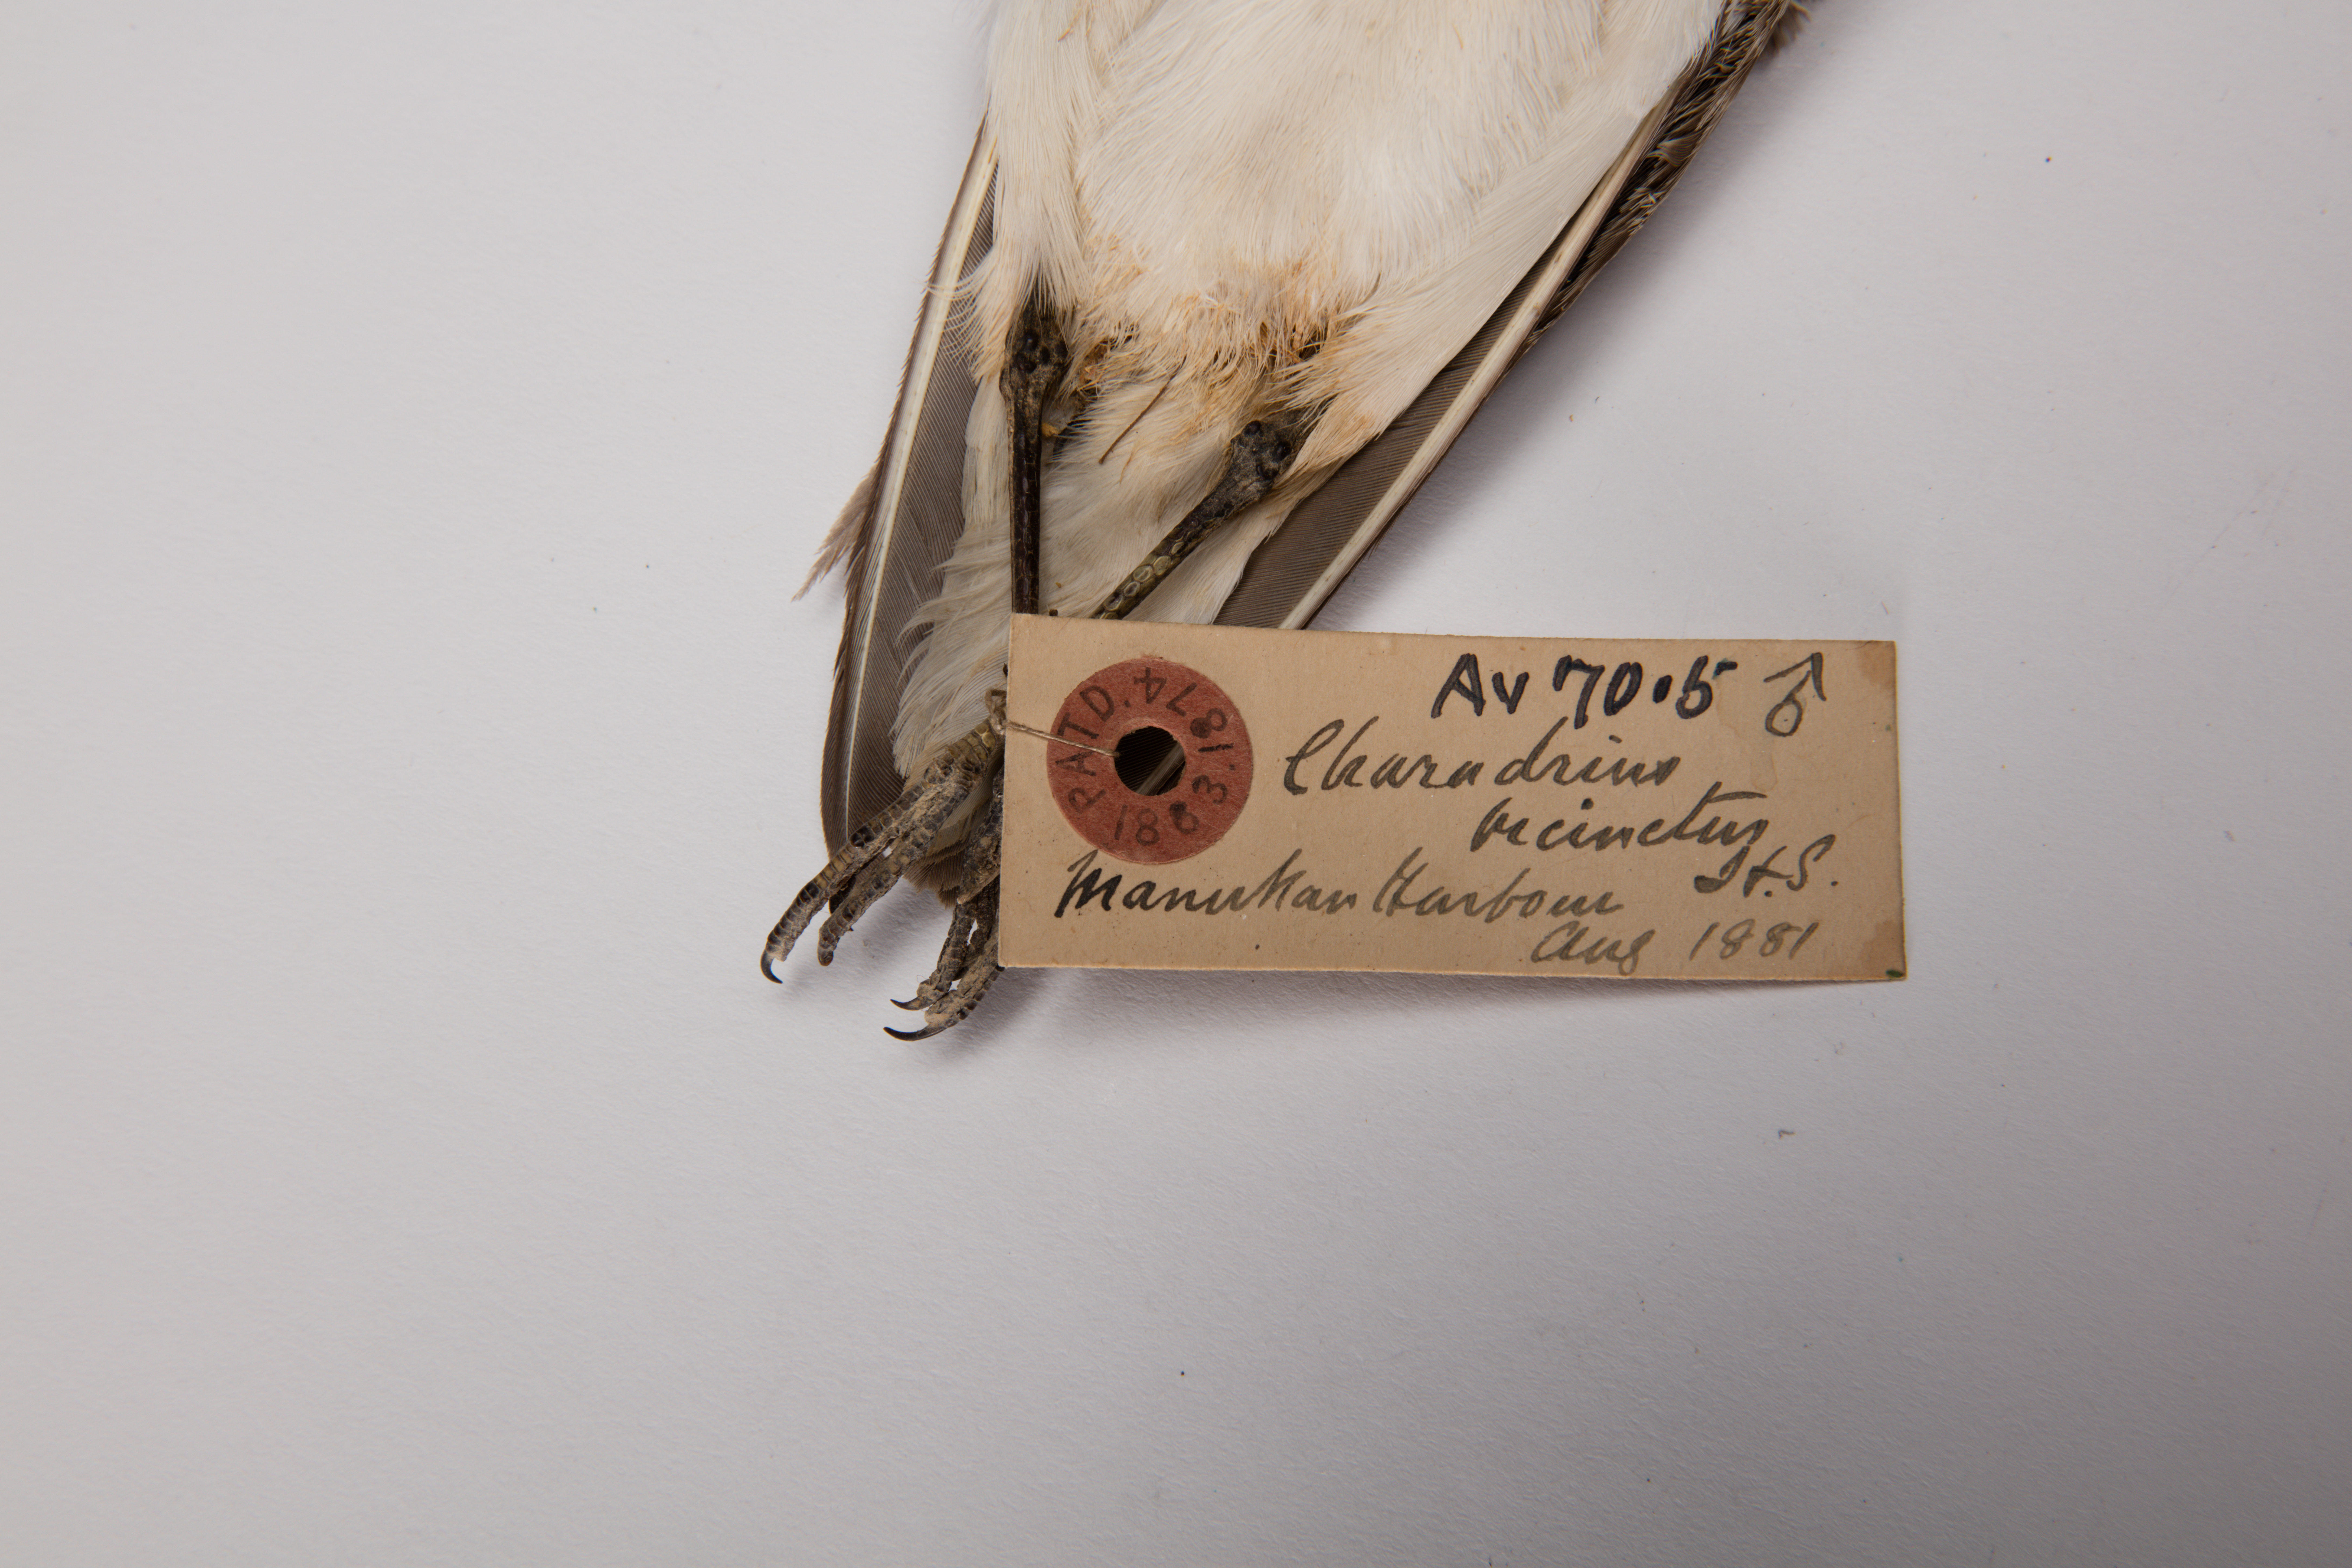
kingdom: Animalia
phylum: Chordata
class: Aves
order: Charadriiformes
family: Charadriidae
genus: Charadrius
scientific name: Charadrius bicinctus
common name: Double-banded plover
